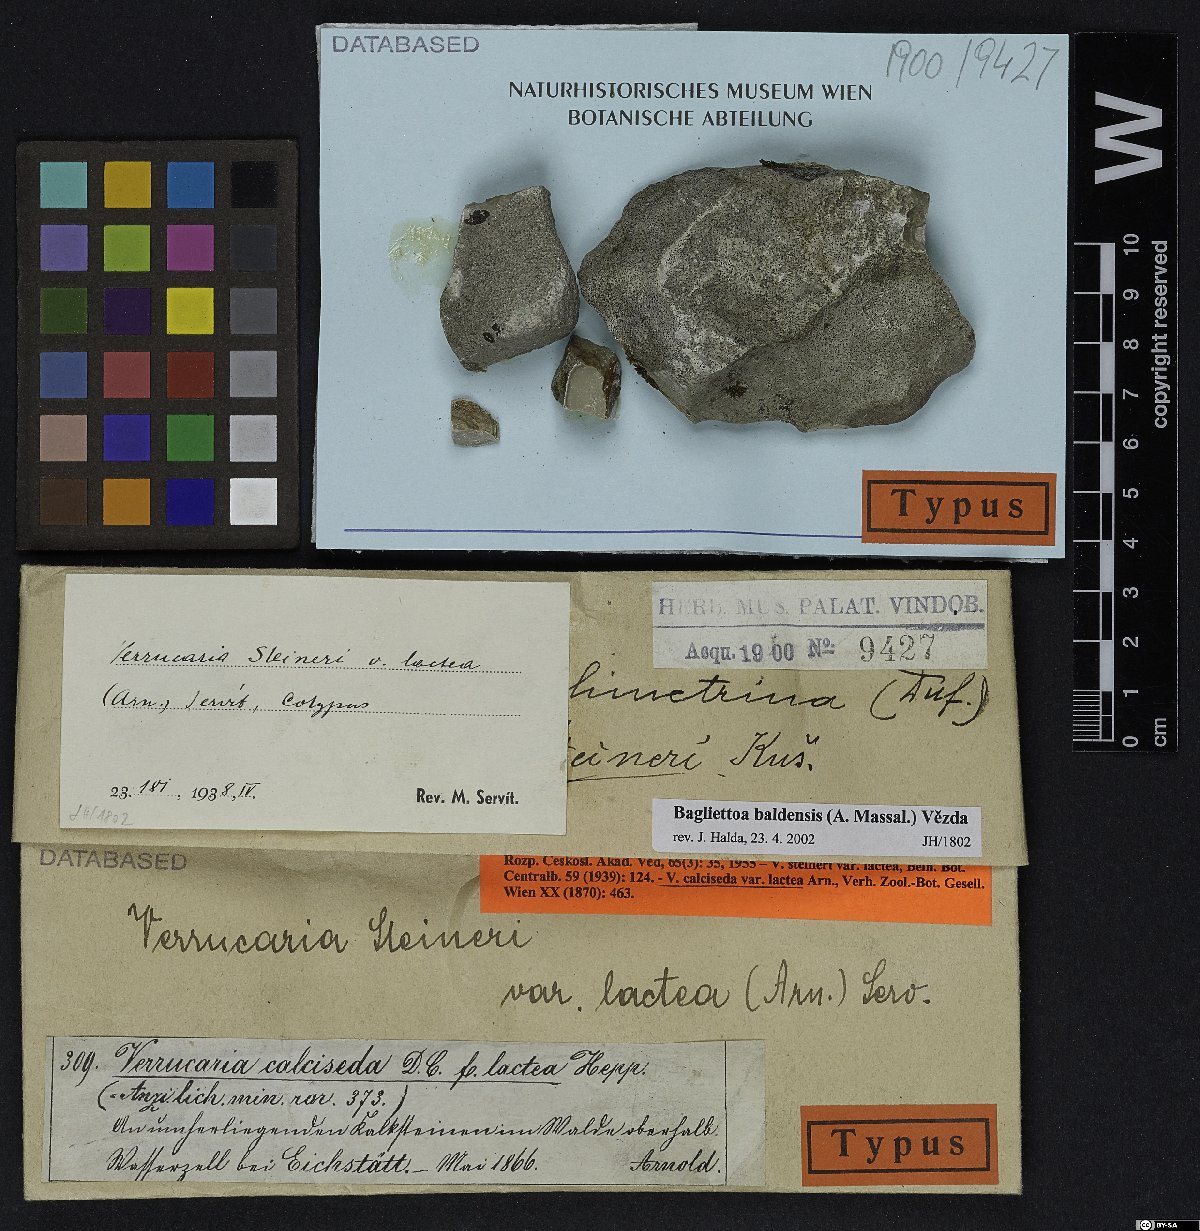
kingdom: Fungi
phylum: Ascomycota
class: Eurotiomycetes
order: Verrucariales
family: Verrucariaceae
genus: Bagliettoa
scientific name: Bagliettoa steineri
